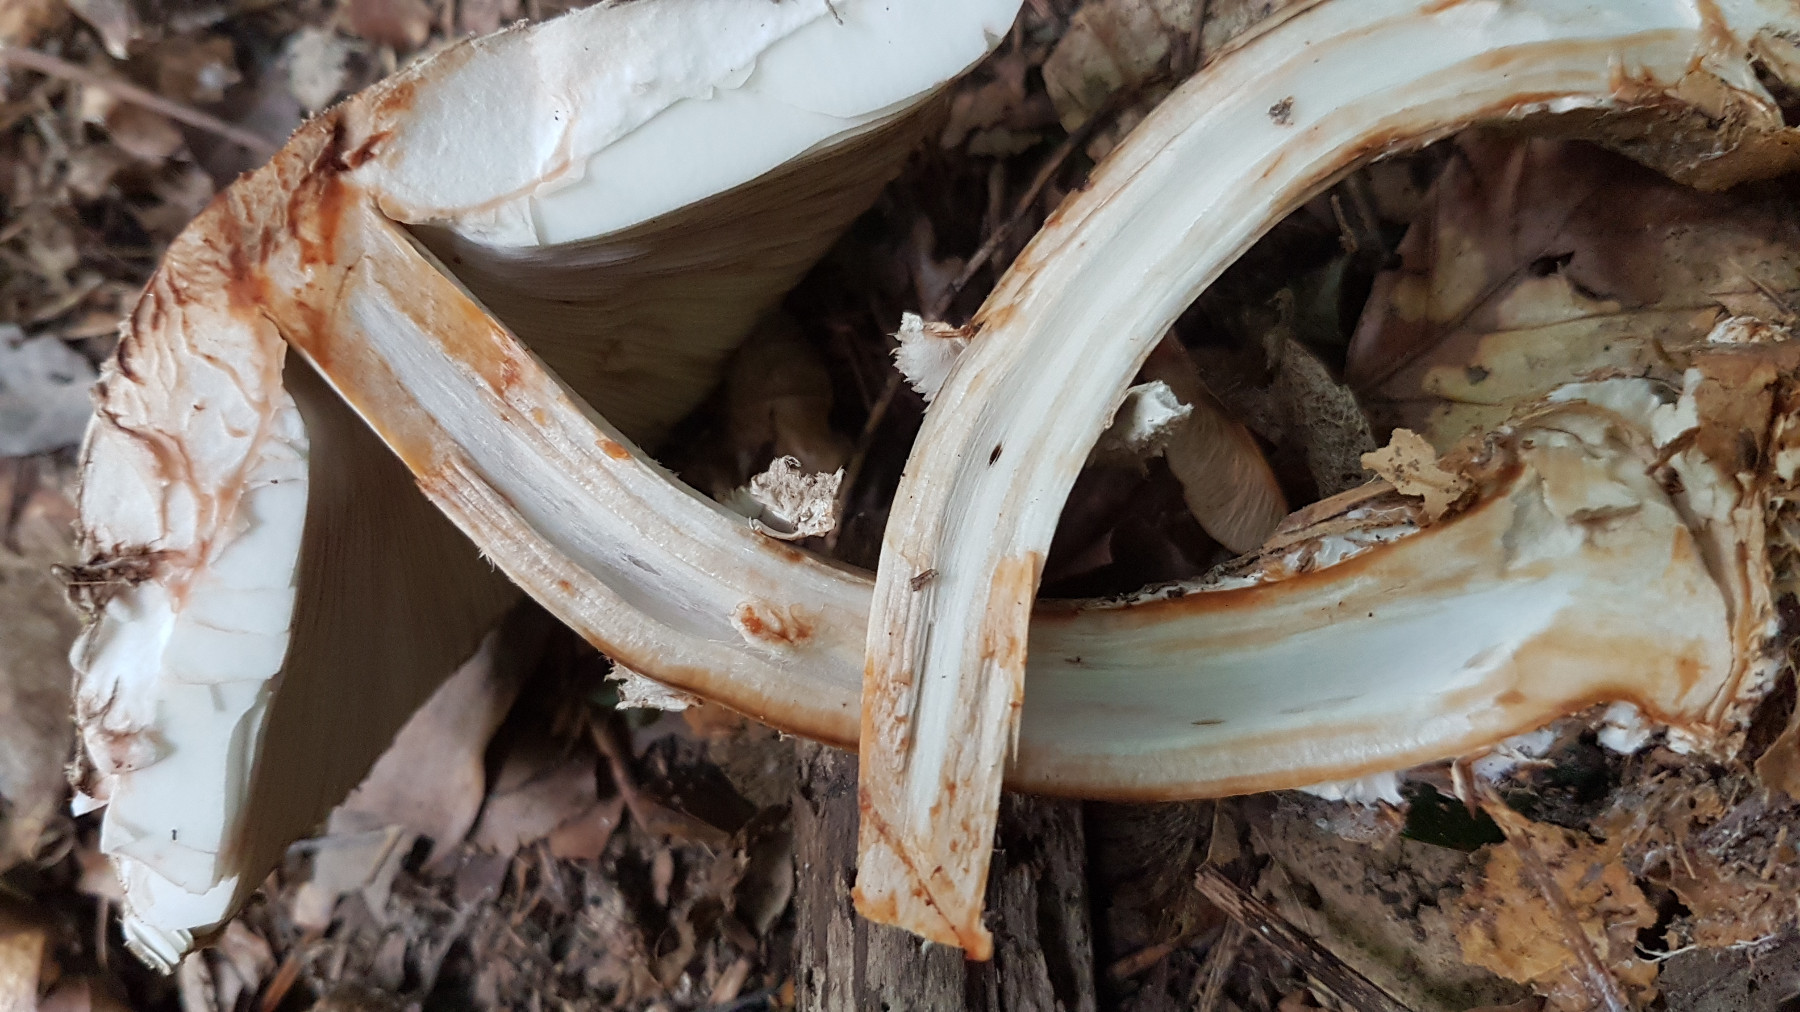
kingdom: Fungi
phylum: Basidiomycota
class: Agaricomycetes
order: Agaricales
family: Agaricaceae
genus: Chlorophyllum
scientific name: Chlorophyllum olivieri
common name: almindelig rabarberhat
